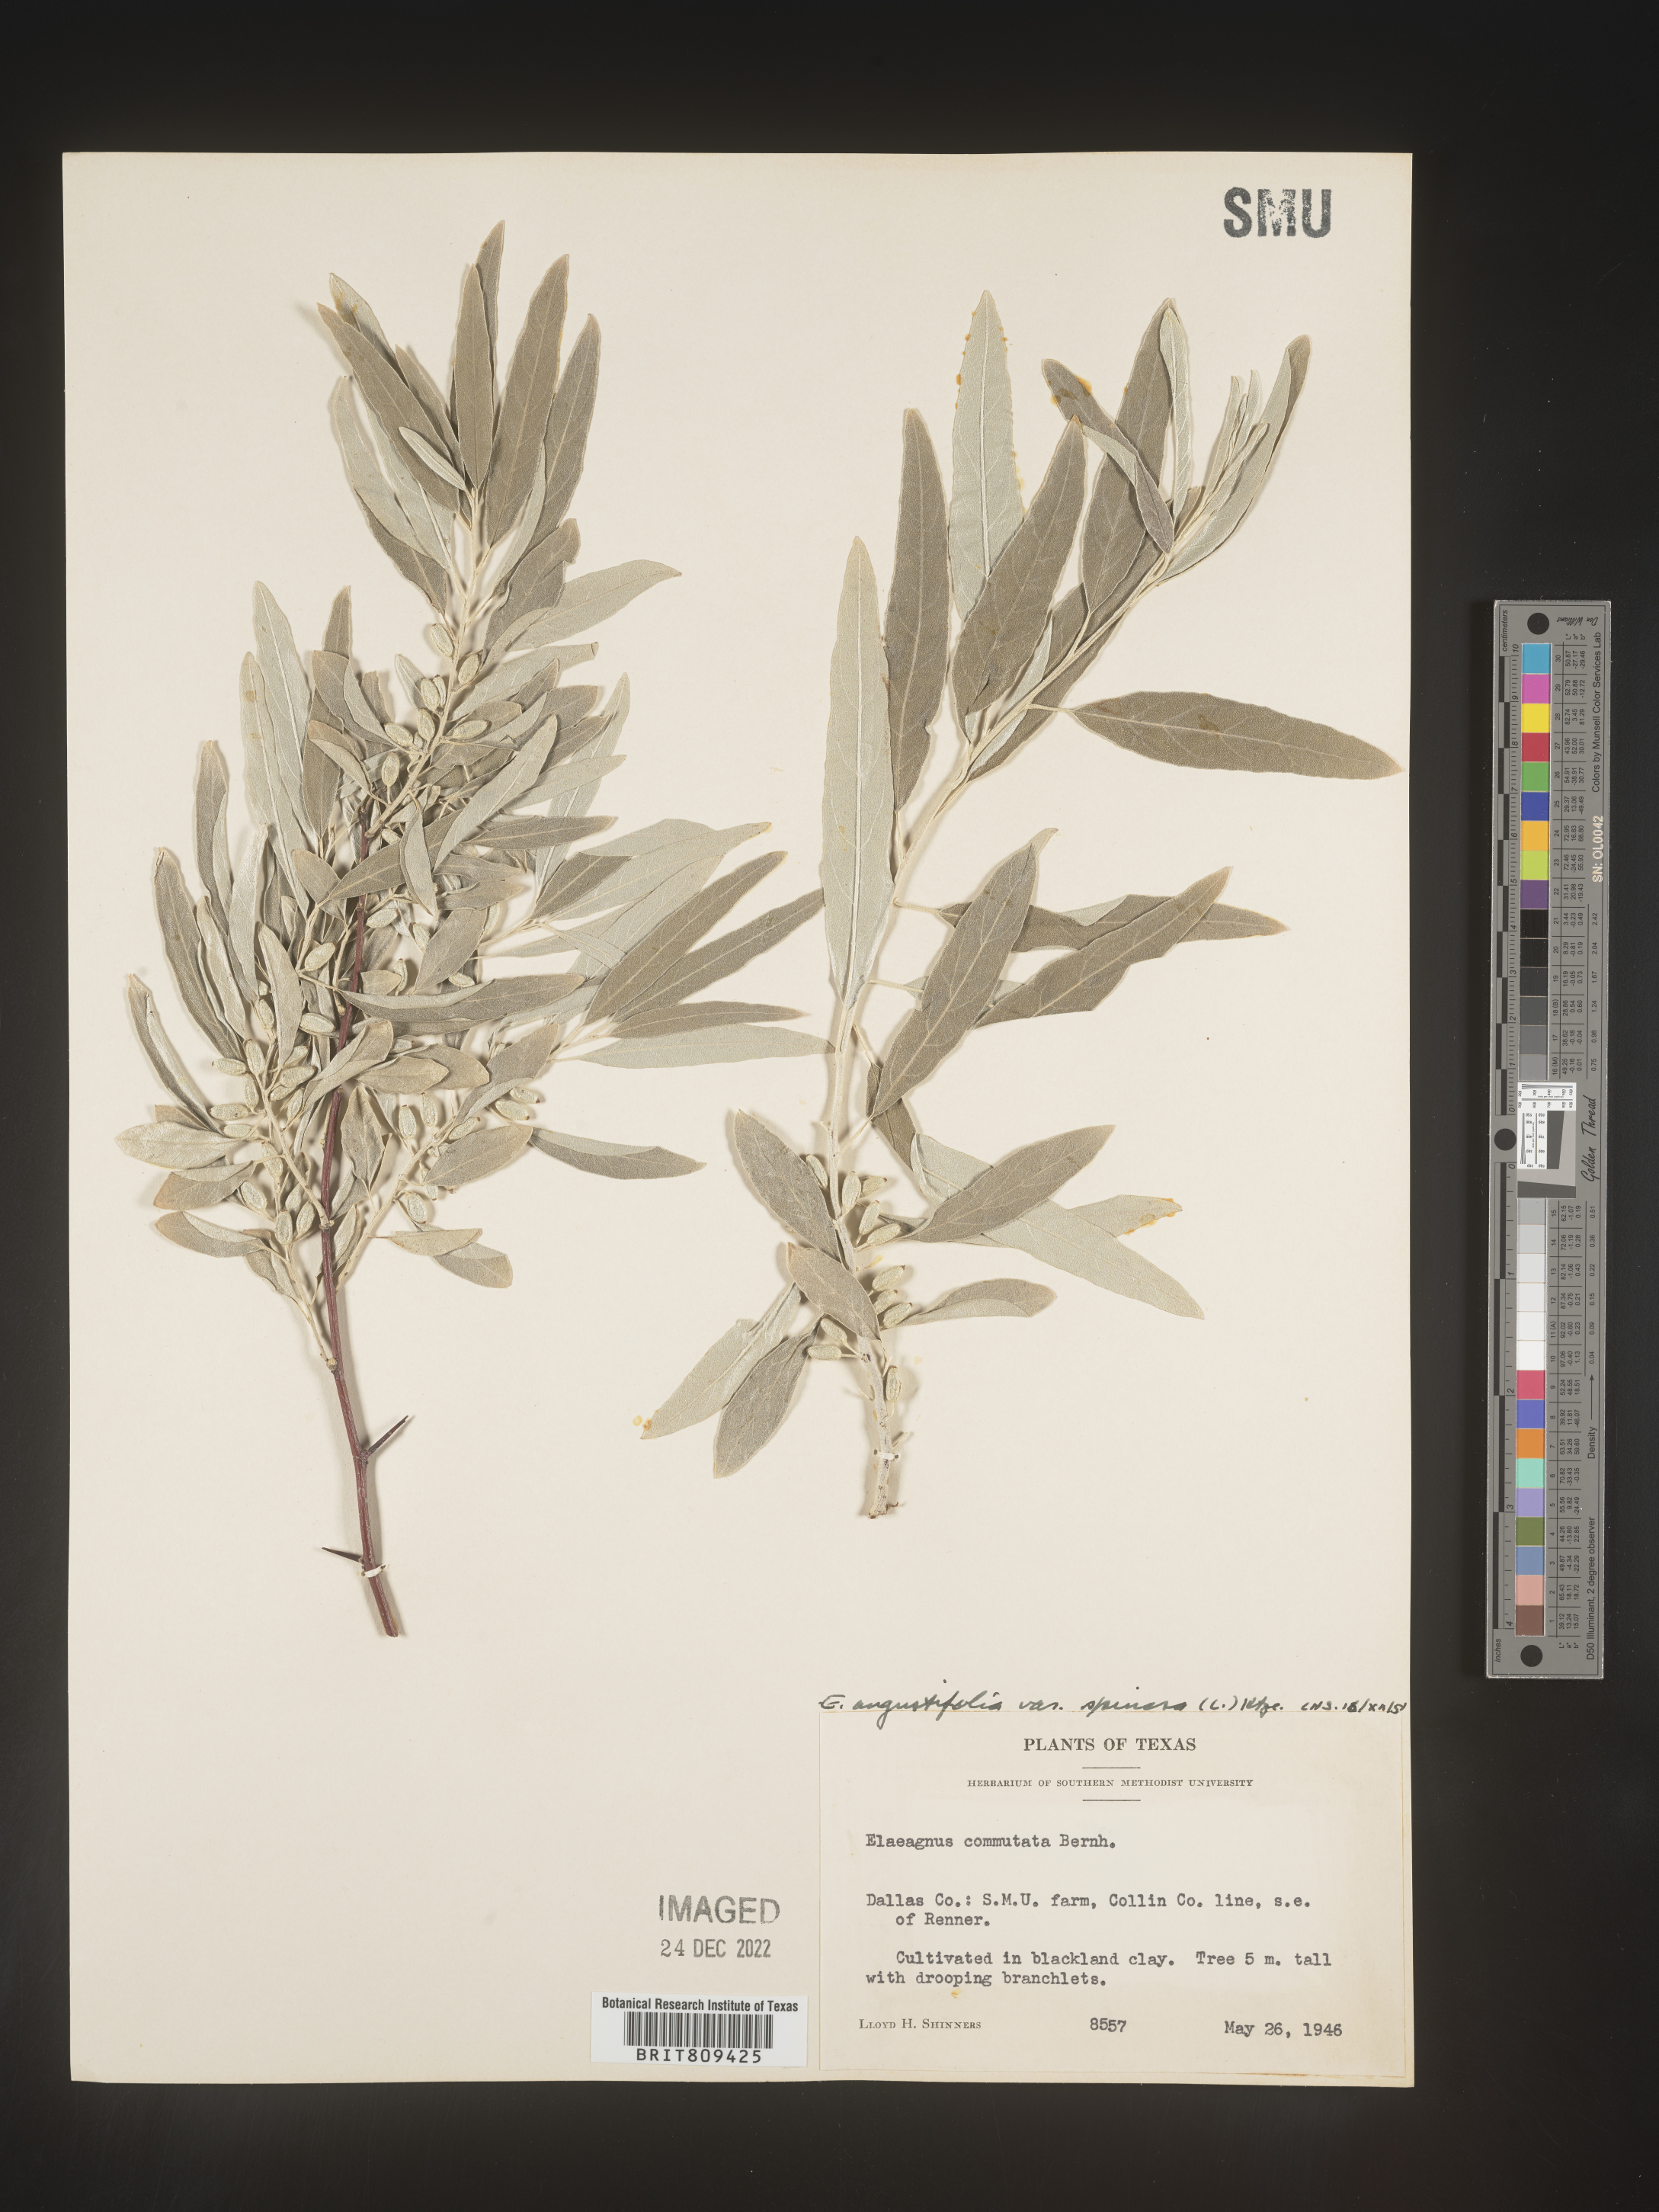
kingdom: Plantae
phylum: Tracheophyta
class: Magnoliopsida
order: Rosales
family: Elaeagnaceae
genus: Elaeagnus
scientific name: Elaeagnus
